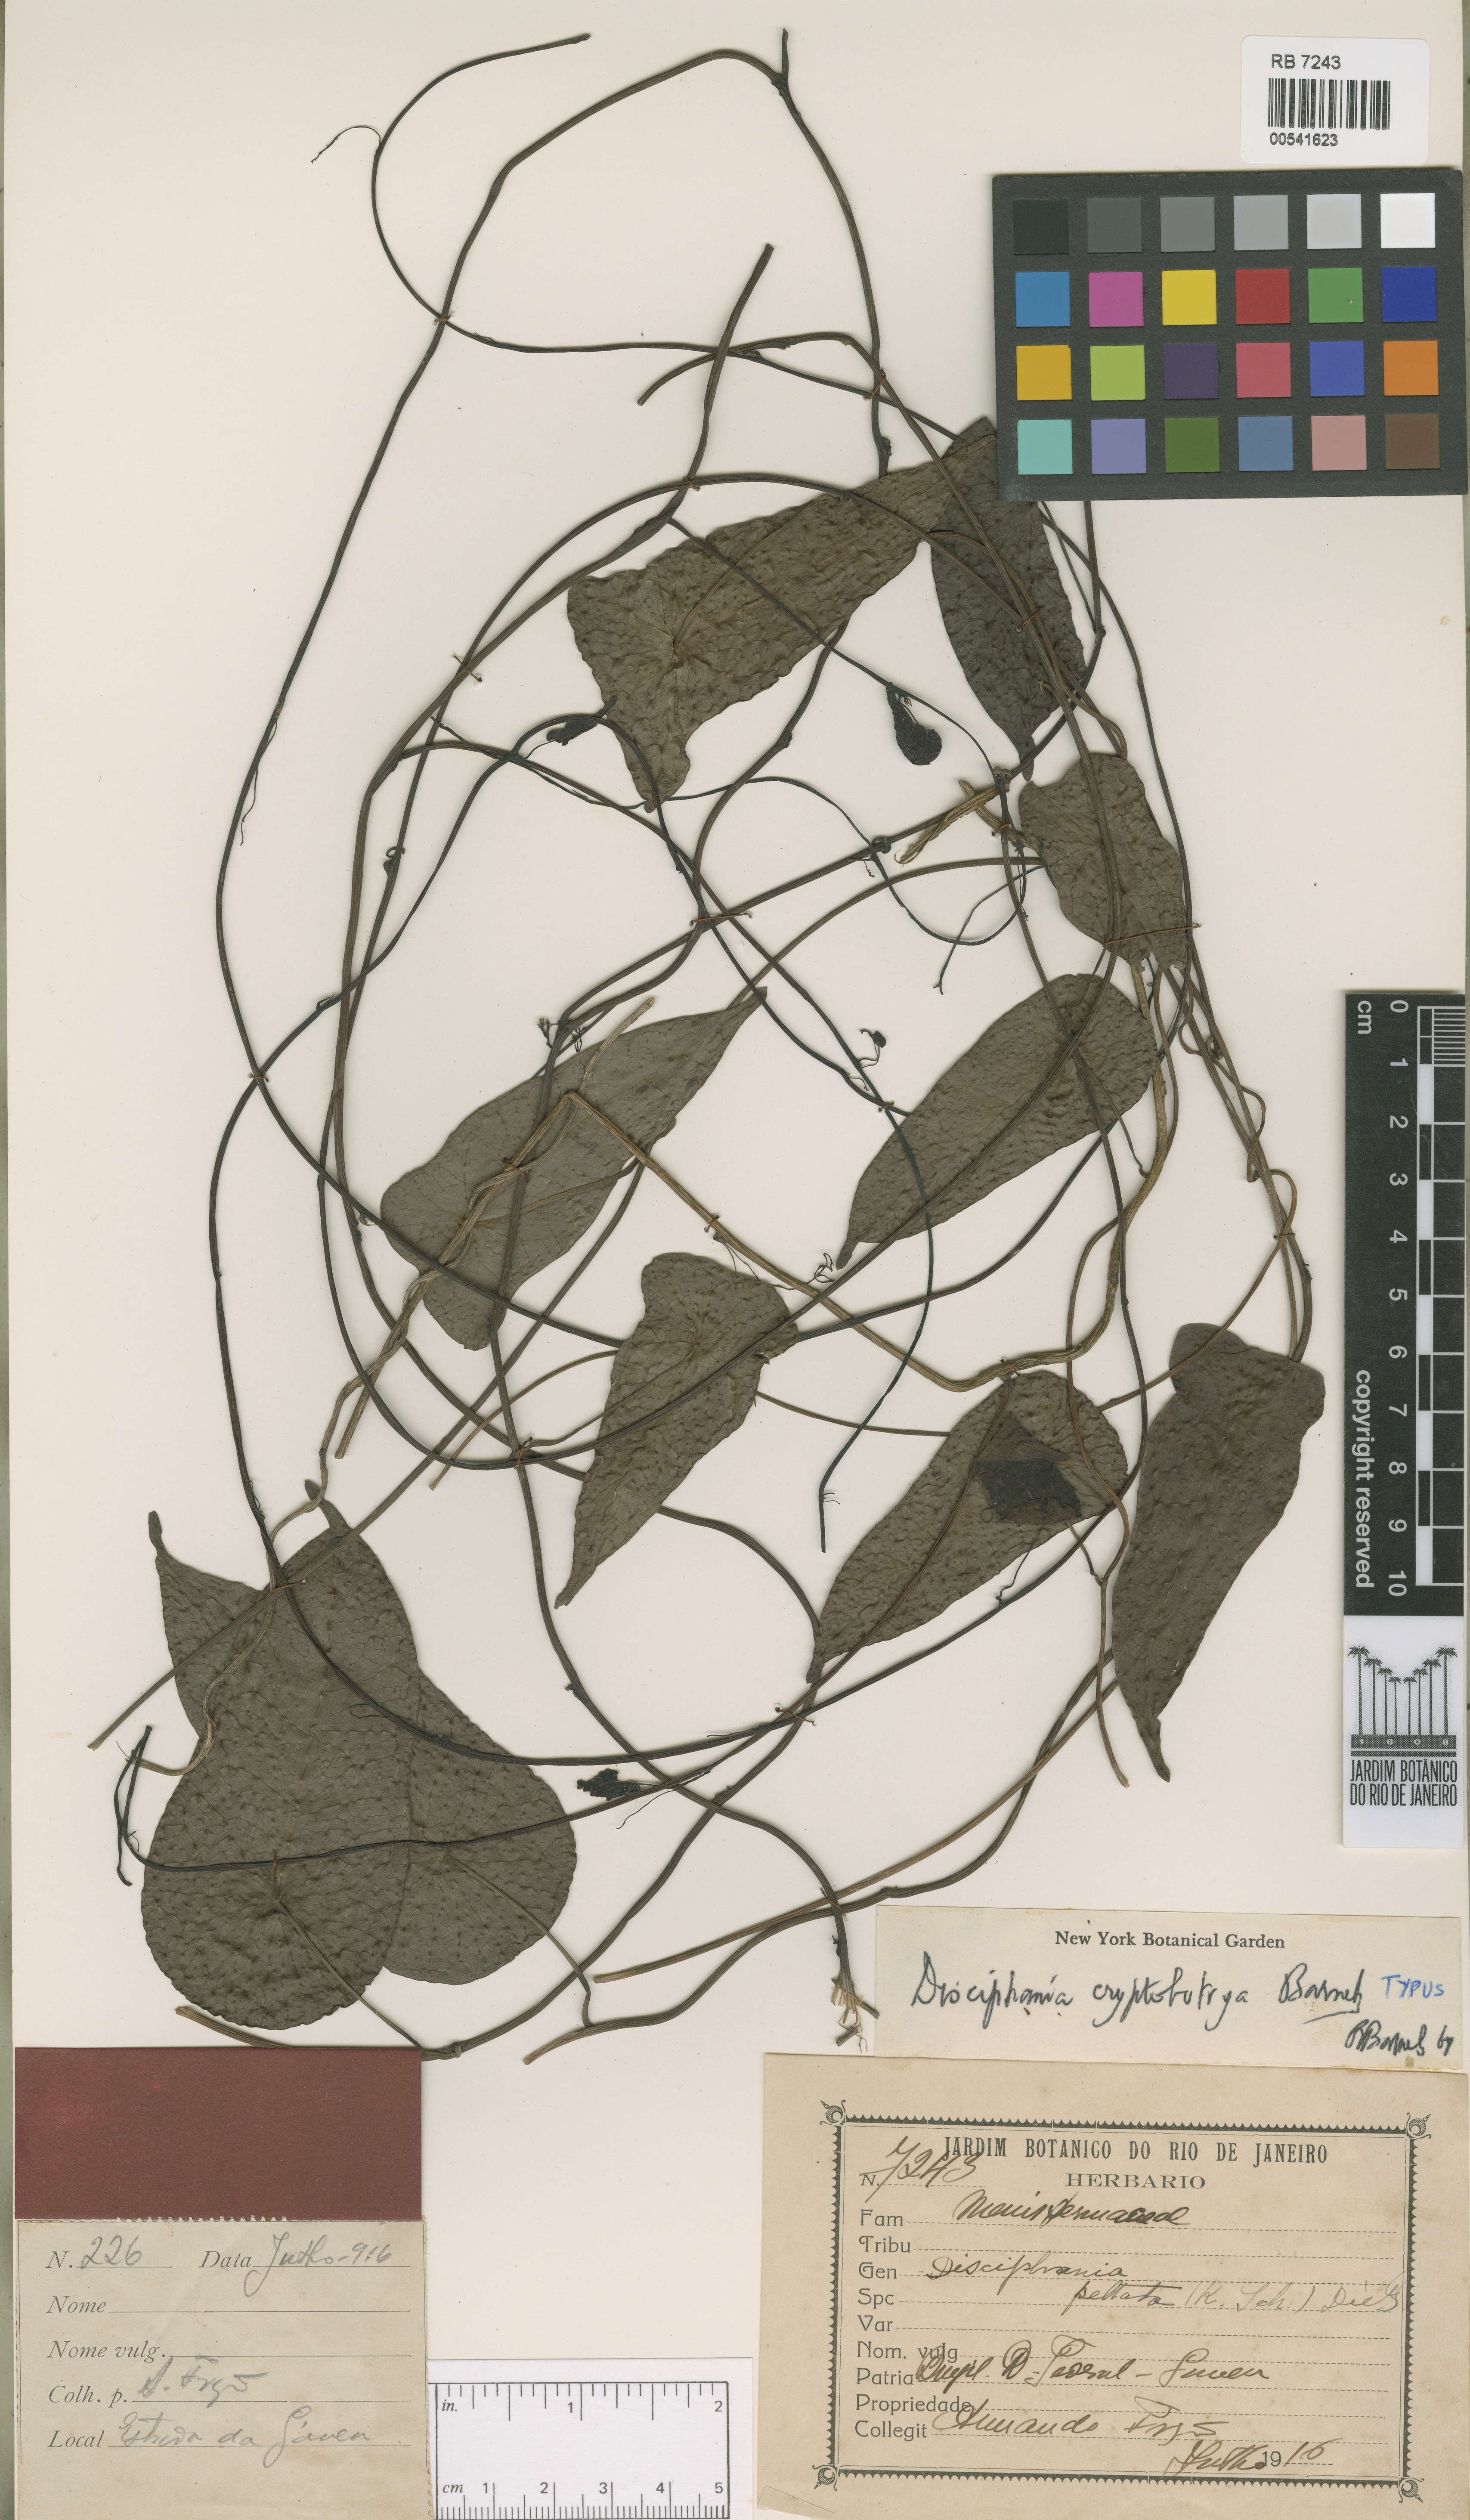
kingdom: Plantae
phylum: Tracheophyta
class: Magnoliopsida
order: Ranunculales
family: Menispermaceae
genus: Disciphania
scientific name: Disciphania hernandia
